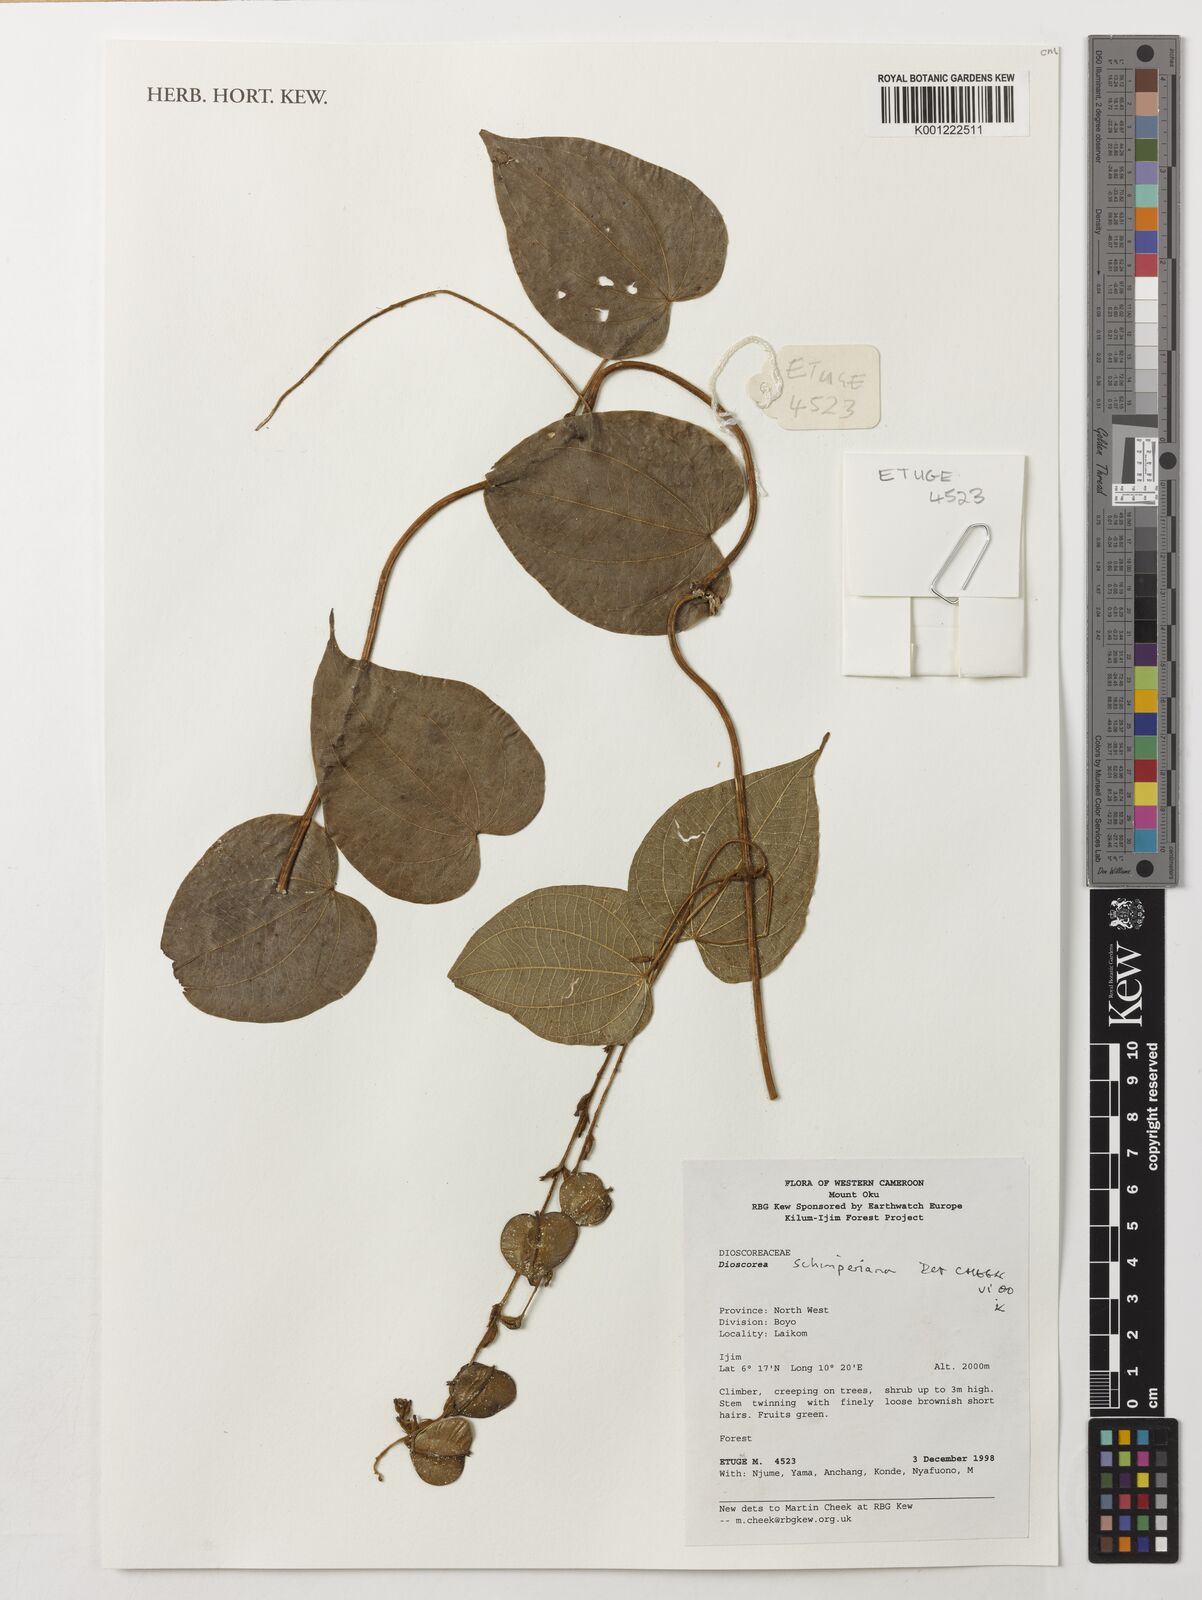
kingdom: Plantae
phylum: Tracheophyta
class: Liliopsida
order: Dioscoreales
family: Dioscoreaceae
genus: Dioscorea
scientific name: Dioscorea schimperiana
